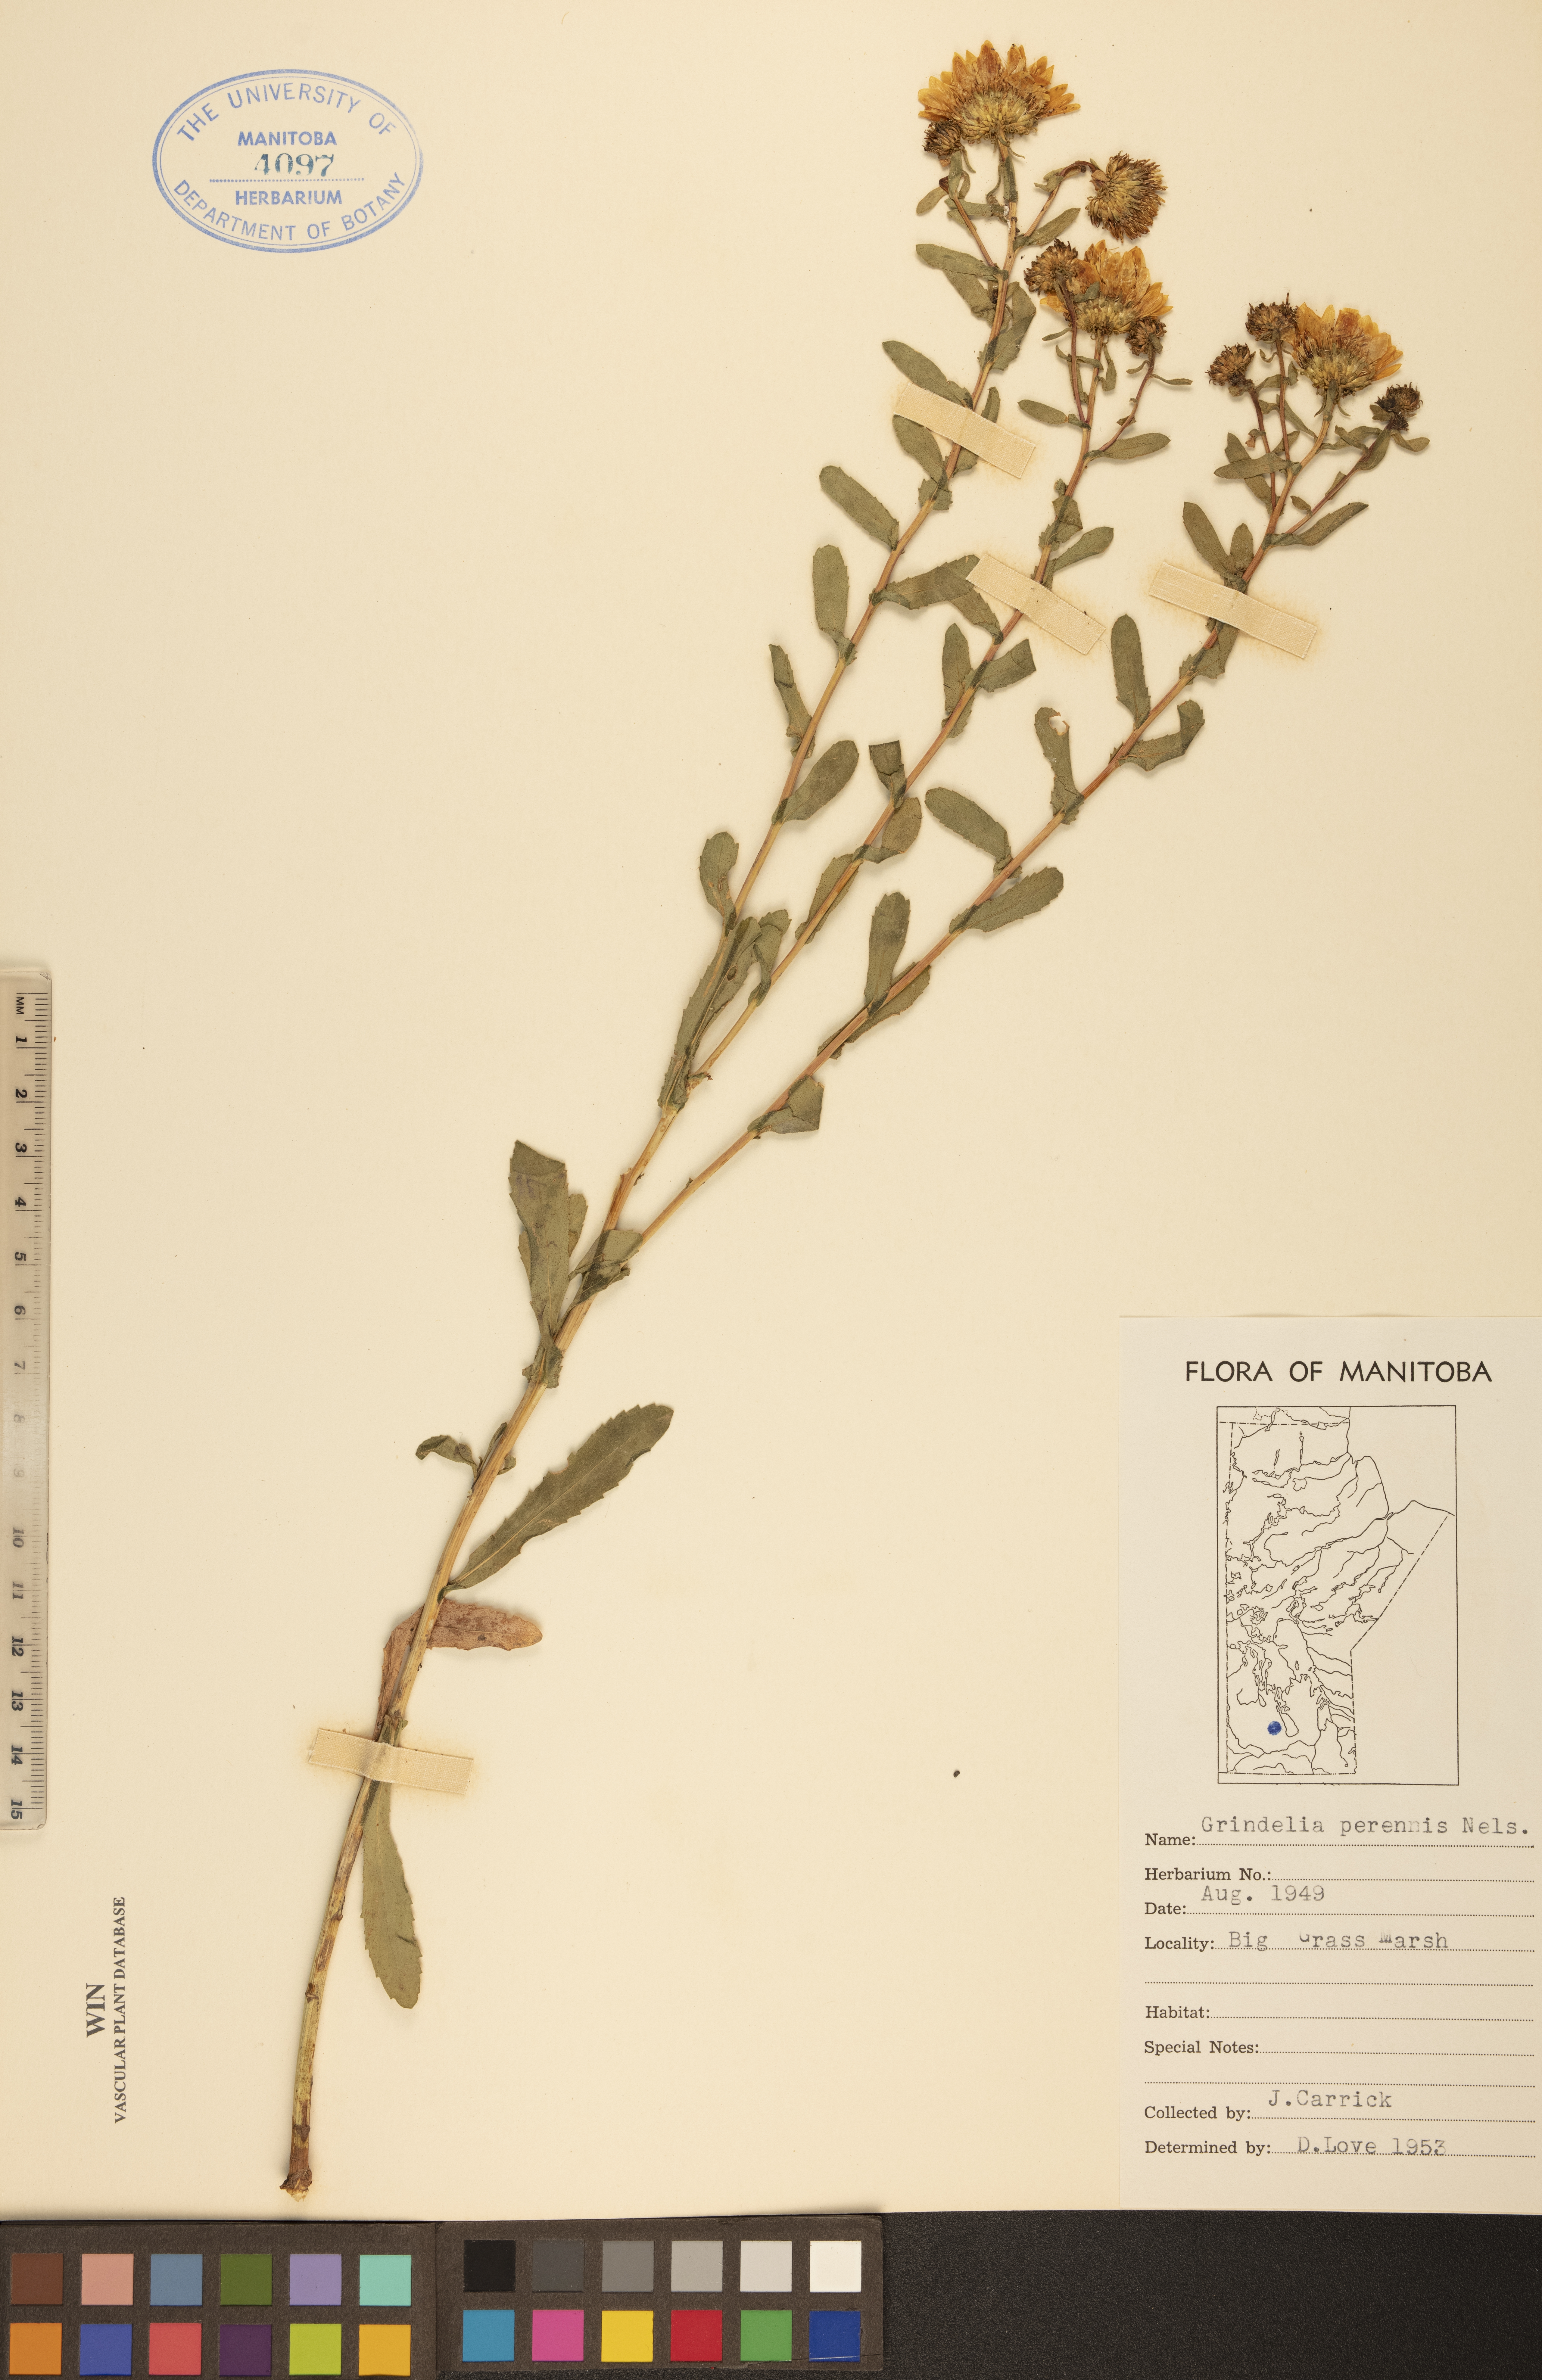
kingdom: Plantae
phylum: Tracheophyta
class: Magnoliopsida
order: Asterales
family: Asteraceae
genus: Grindelia
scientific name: Grindelia hirsutula
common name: Hairy gumweed
